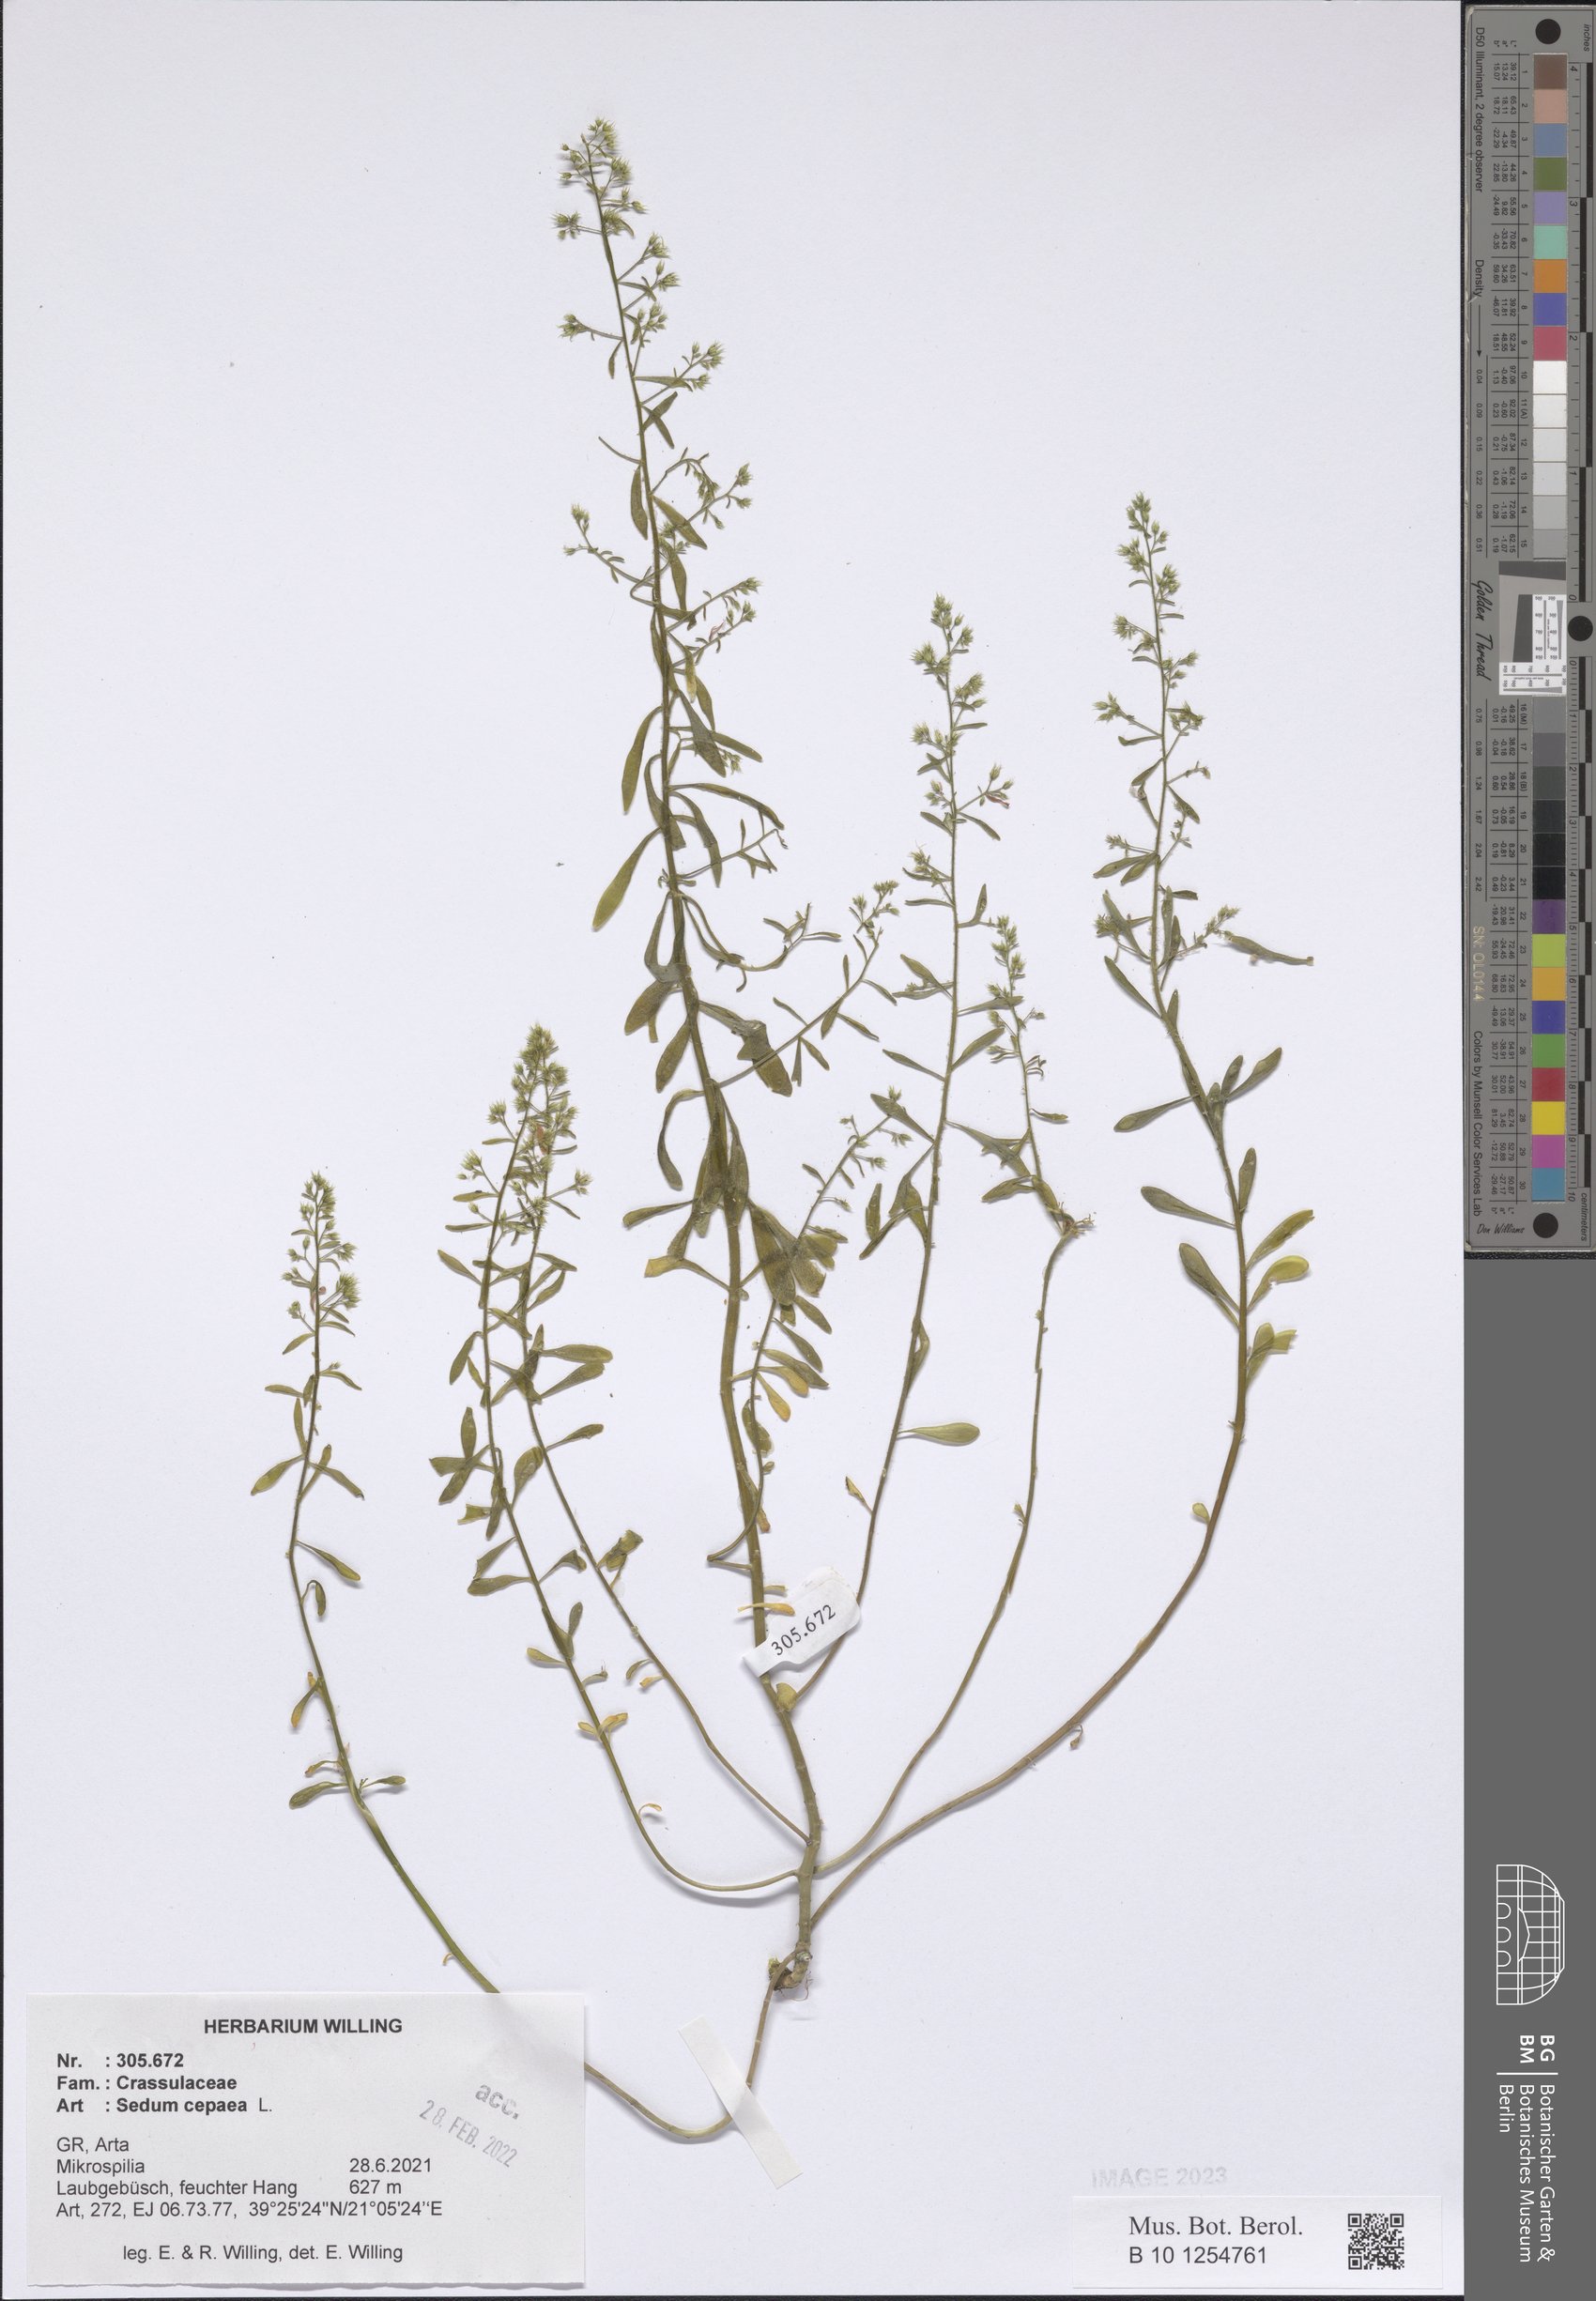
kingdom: Plantae
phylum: Tracheophyta
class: Magnoliopsida
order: Saxifragales
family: Crassulaceae
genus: Sedum
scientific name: Sedum cepaea
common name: Pink stonecrop
